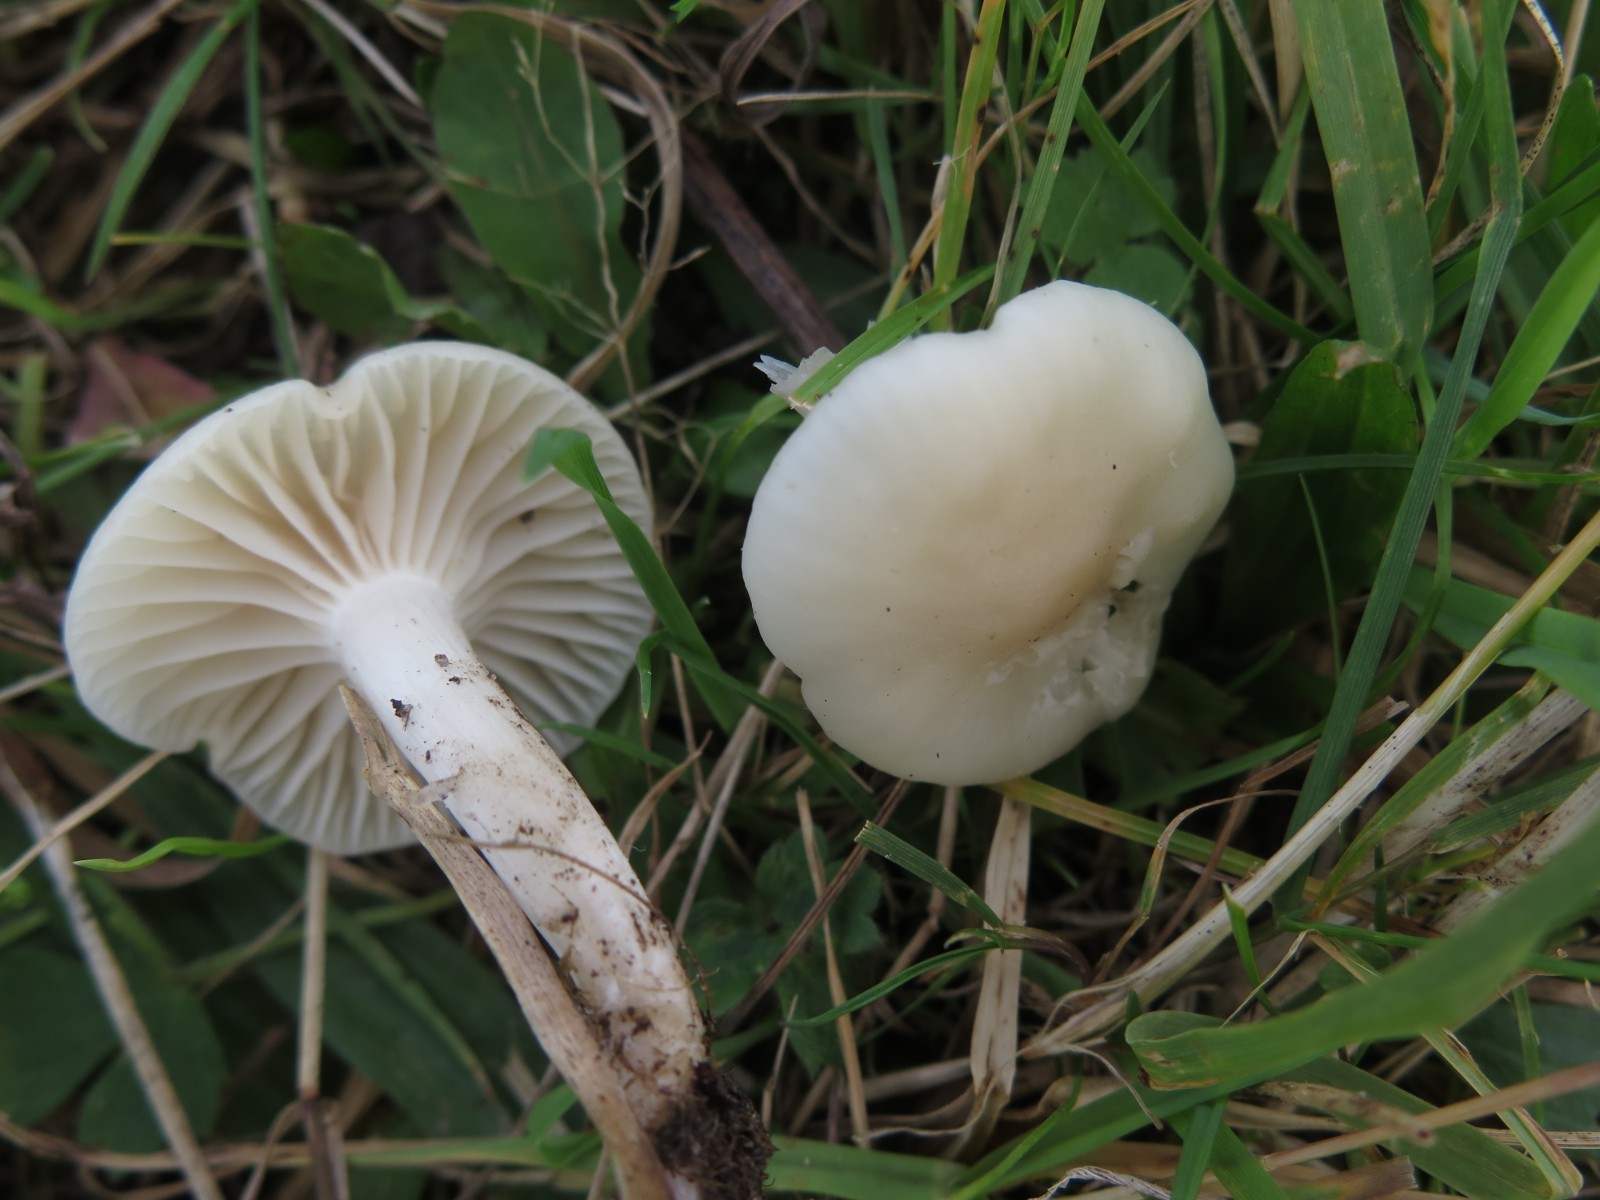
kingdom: Fungi
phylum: Basidiomycota
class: Agaricomycetes
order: Agaricales
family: Hygrophoraceae
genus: Cuphophyllus
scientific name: Cuphophyllus virgineus
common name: snehvid vokshat
